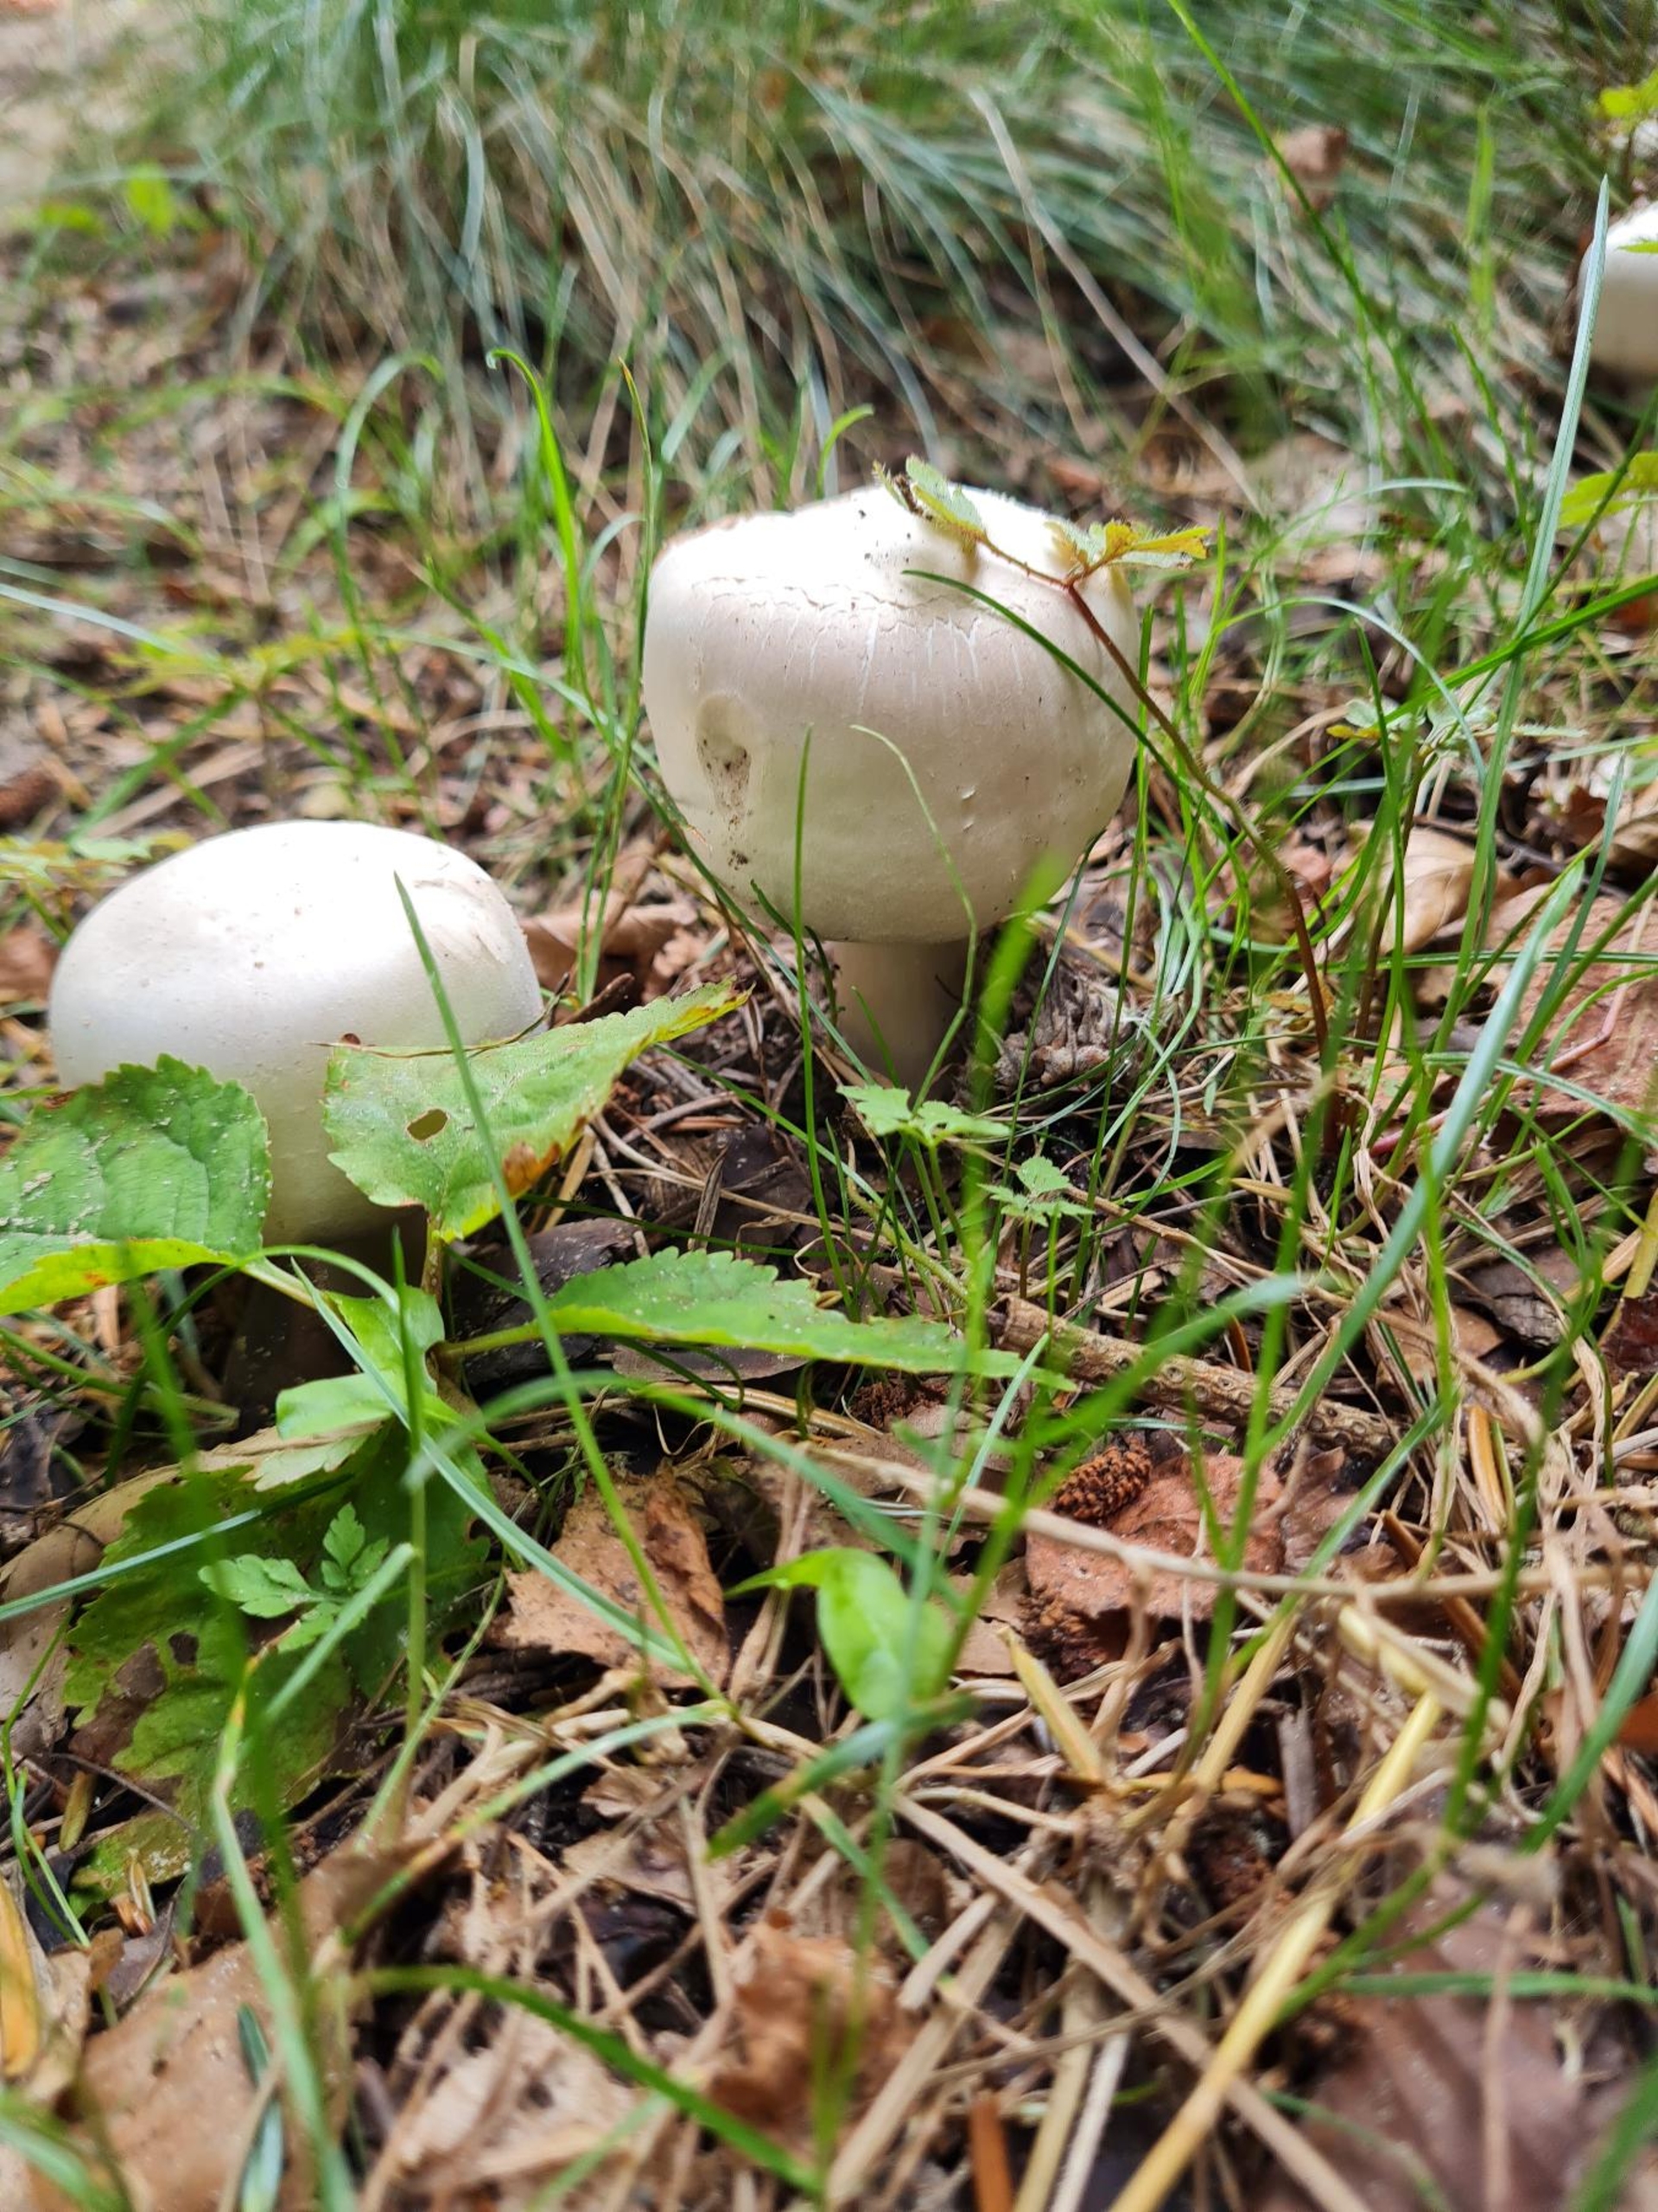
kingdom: Fungi
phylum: Basidiomycota
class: Agaricomycetes
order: Agaricales
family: Agaricaceae
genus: Agaricus
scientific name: Agaricus
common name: Champignon
